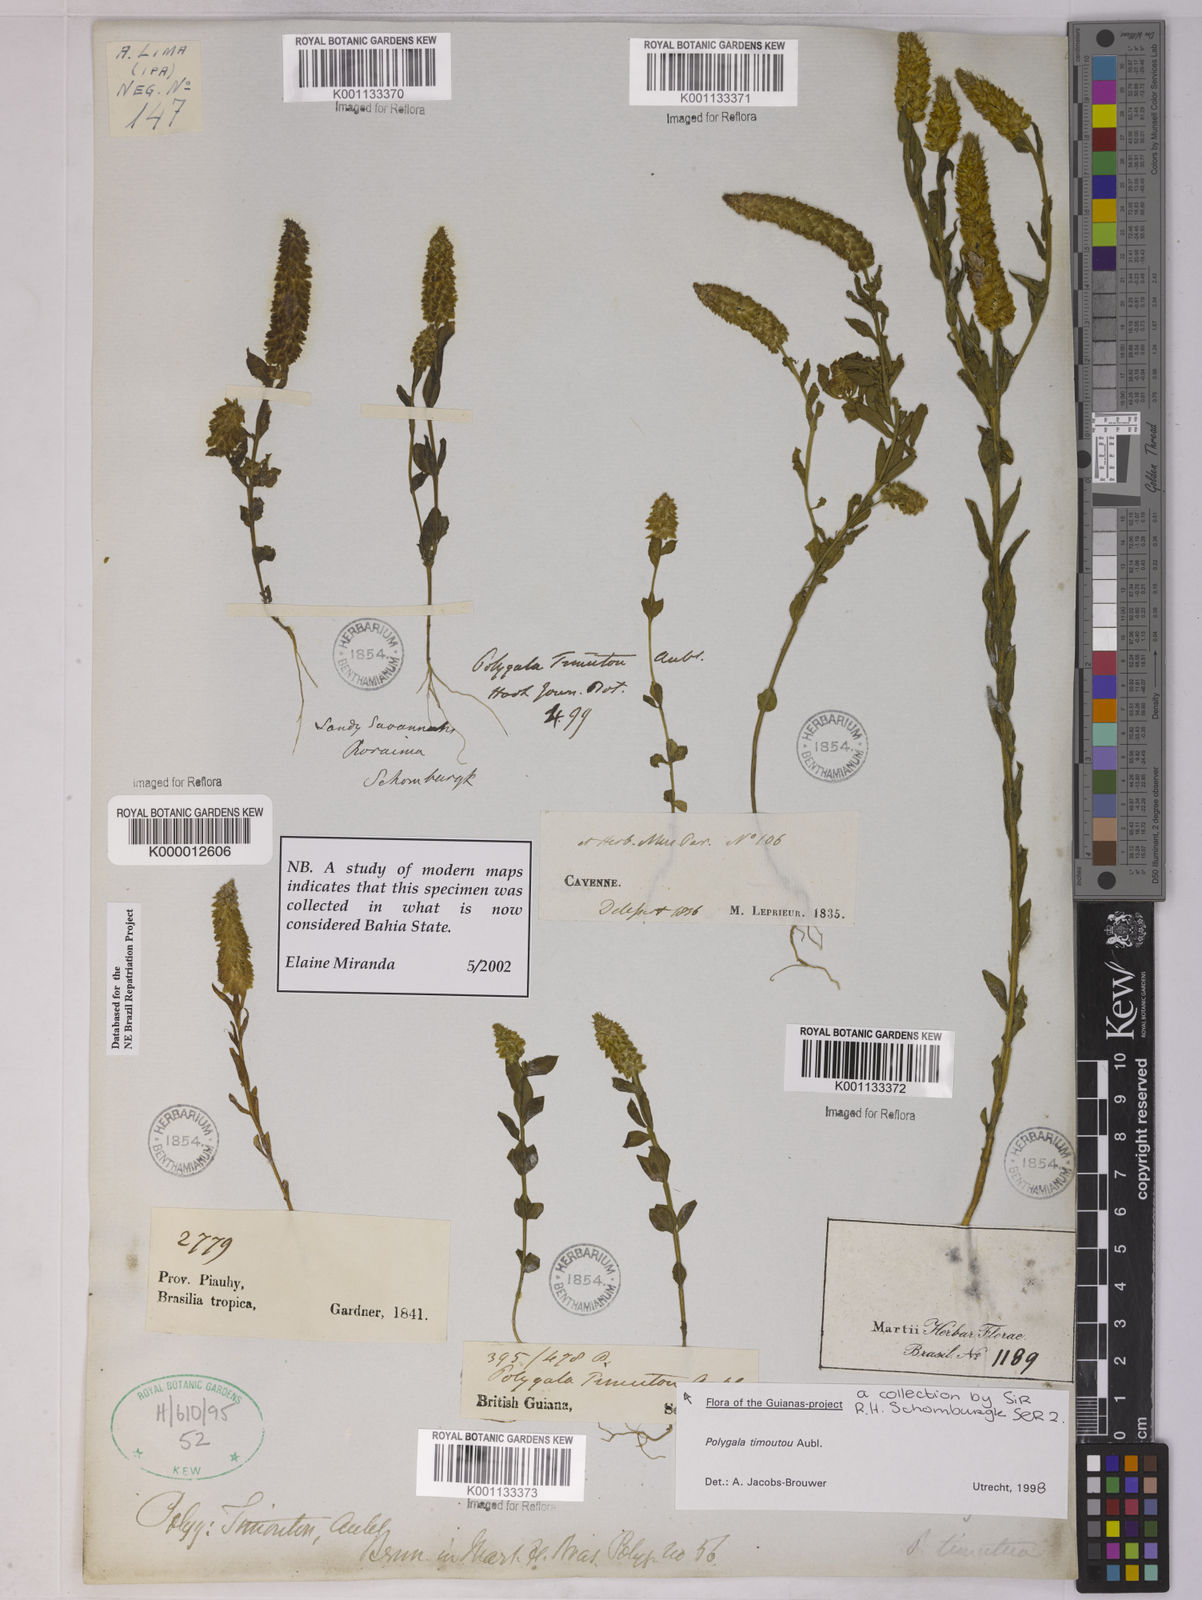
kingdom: Plantae
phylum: Tracheophyta
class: Magnoliopsida
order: Fabales
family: Polygalaceae
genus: Polygala
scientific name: Polygala timoutoides
